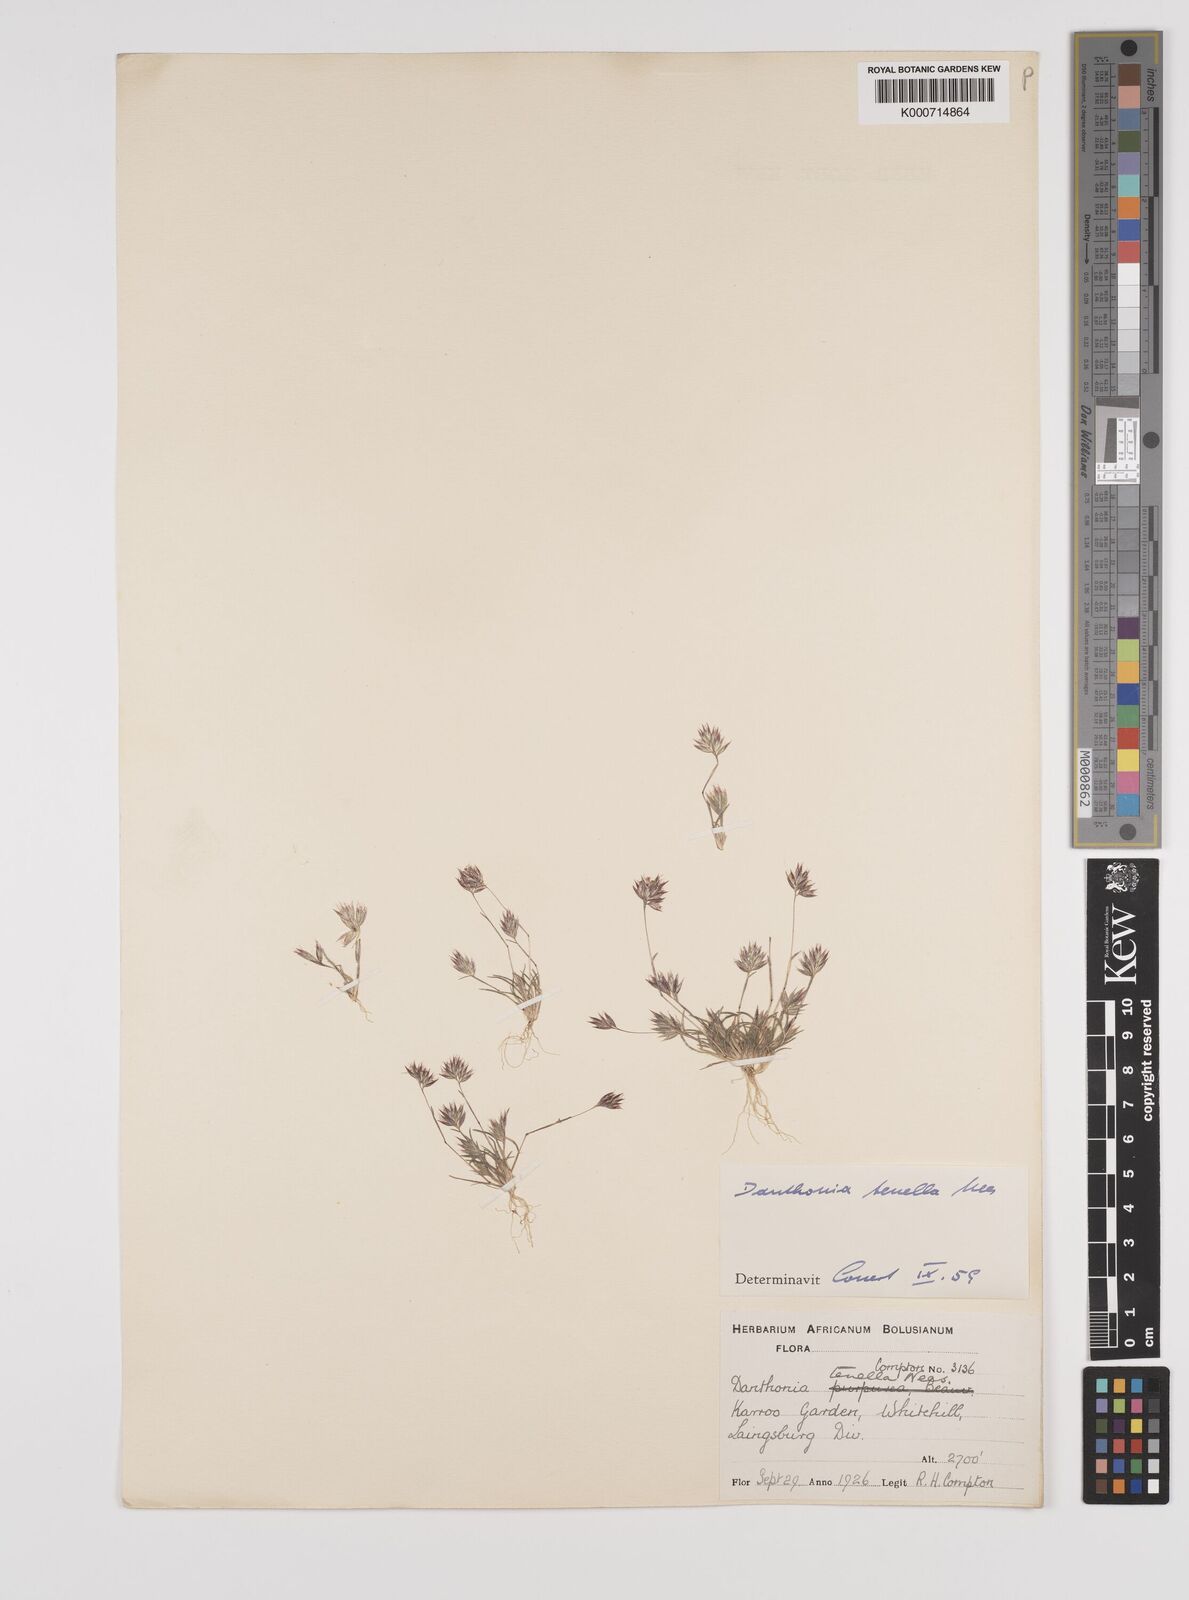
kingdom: Plantae
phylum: Tracheophyta
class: Liliopsida
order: Poales
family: Poaceae
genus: Rytidosperma
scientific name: Rytidosperma
